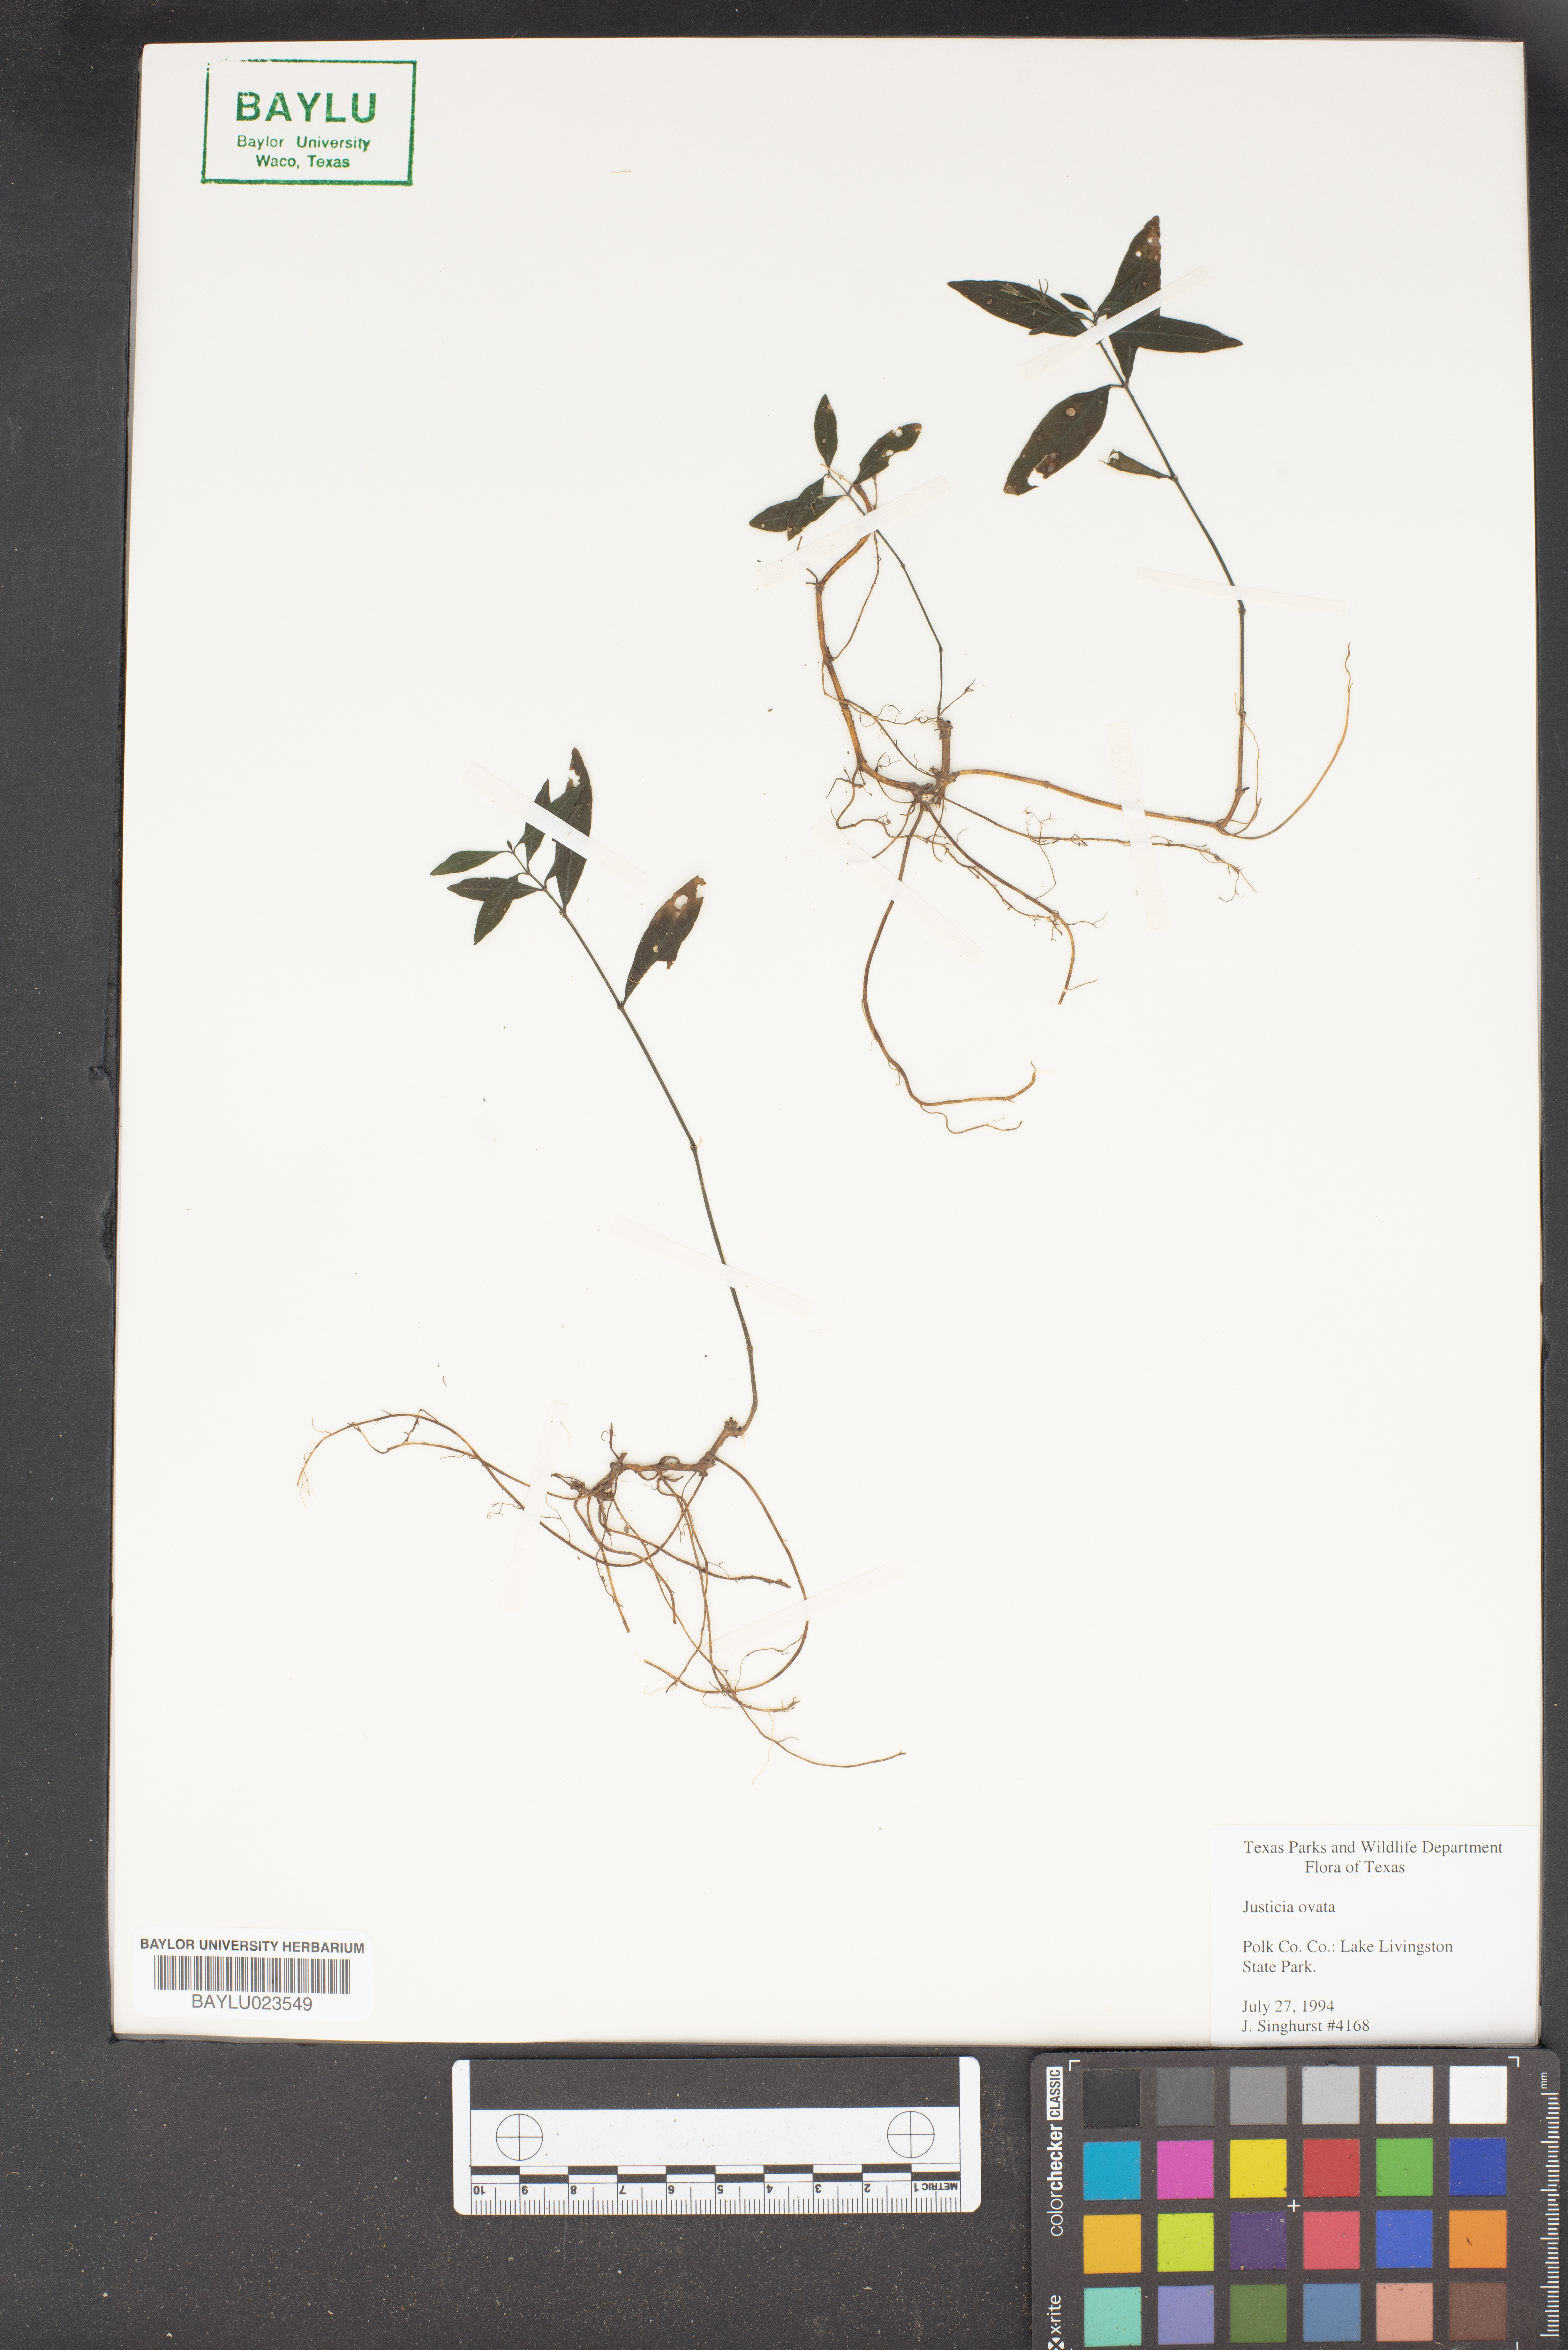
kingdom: Plantae
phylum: Tracheophyta
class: Magnoliopsida
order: Lamiales
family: Acanthaceae
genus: Dianthera
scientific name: Dianthera ovata
